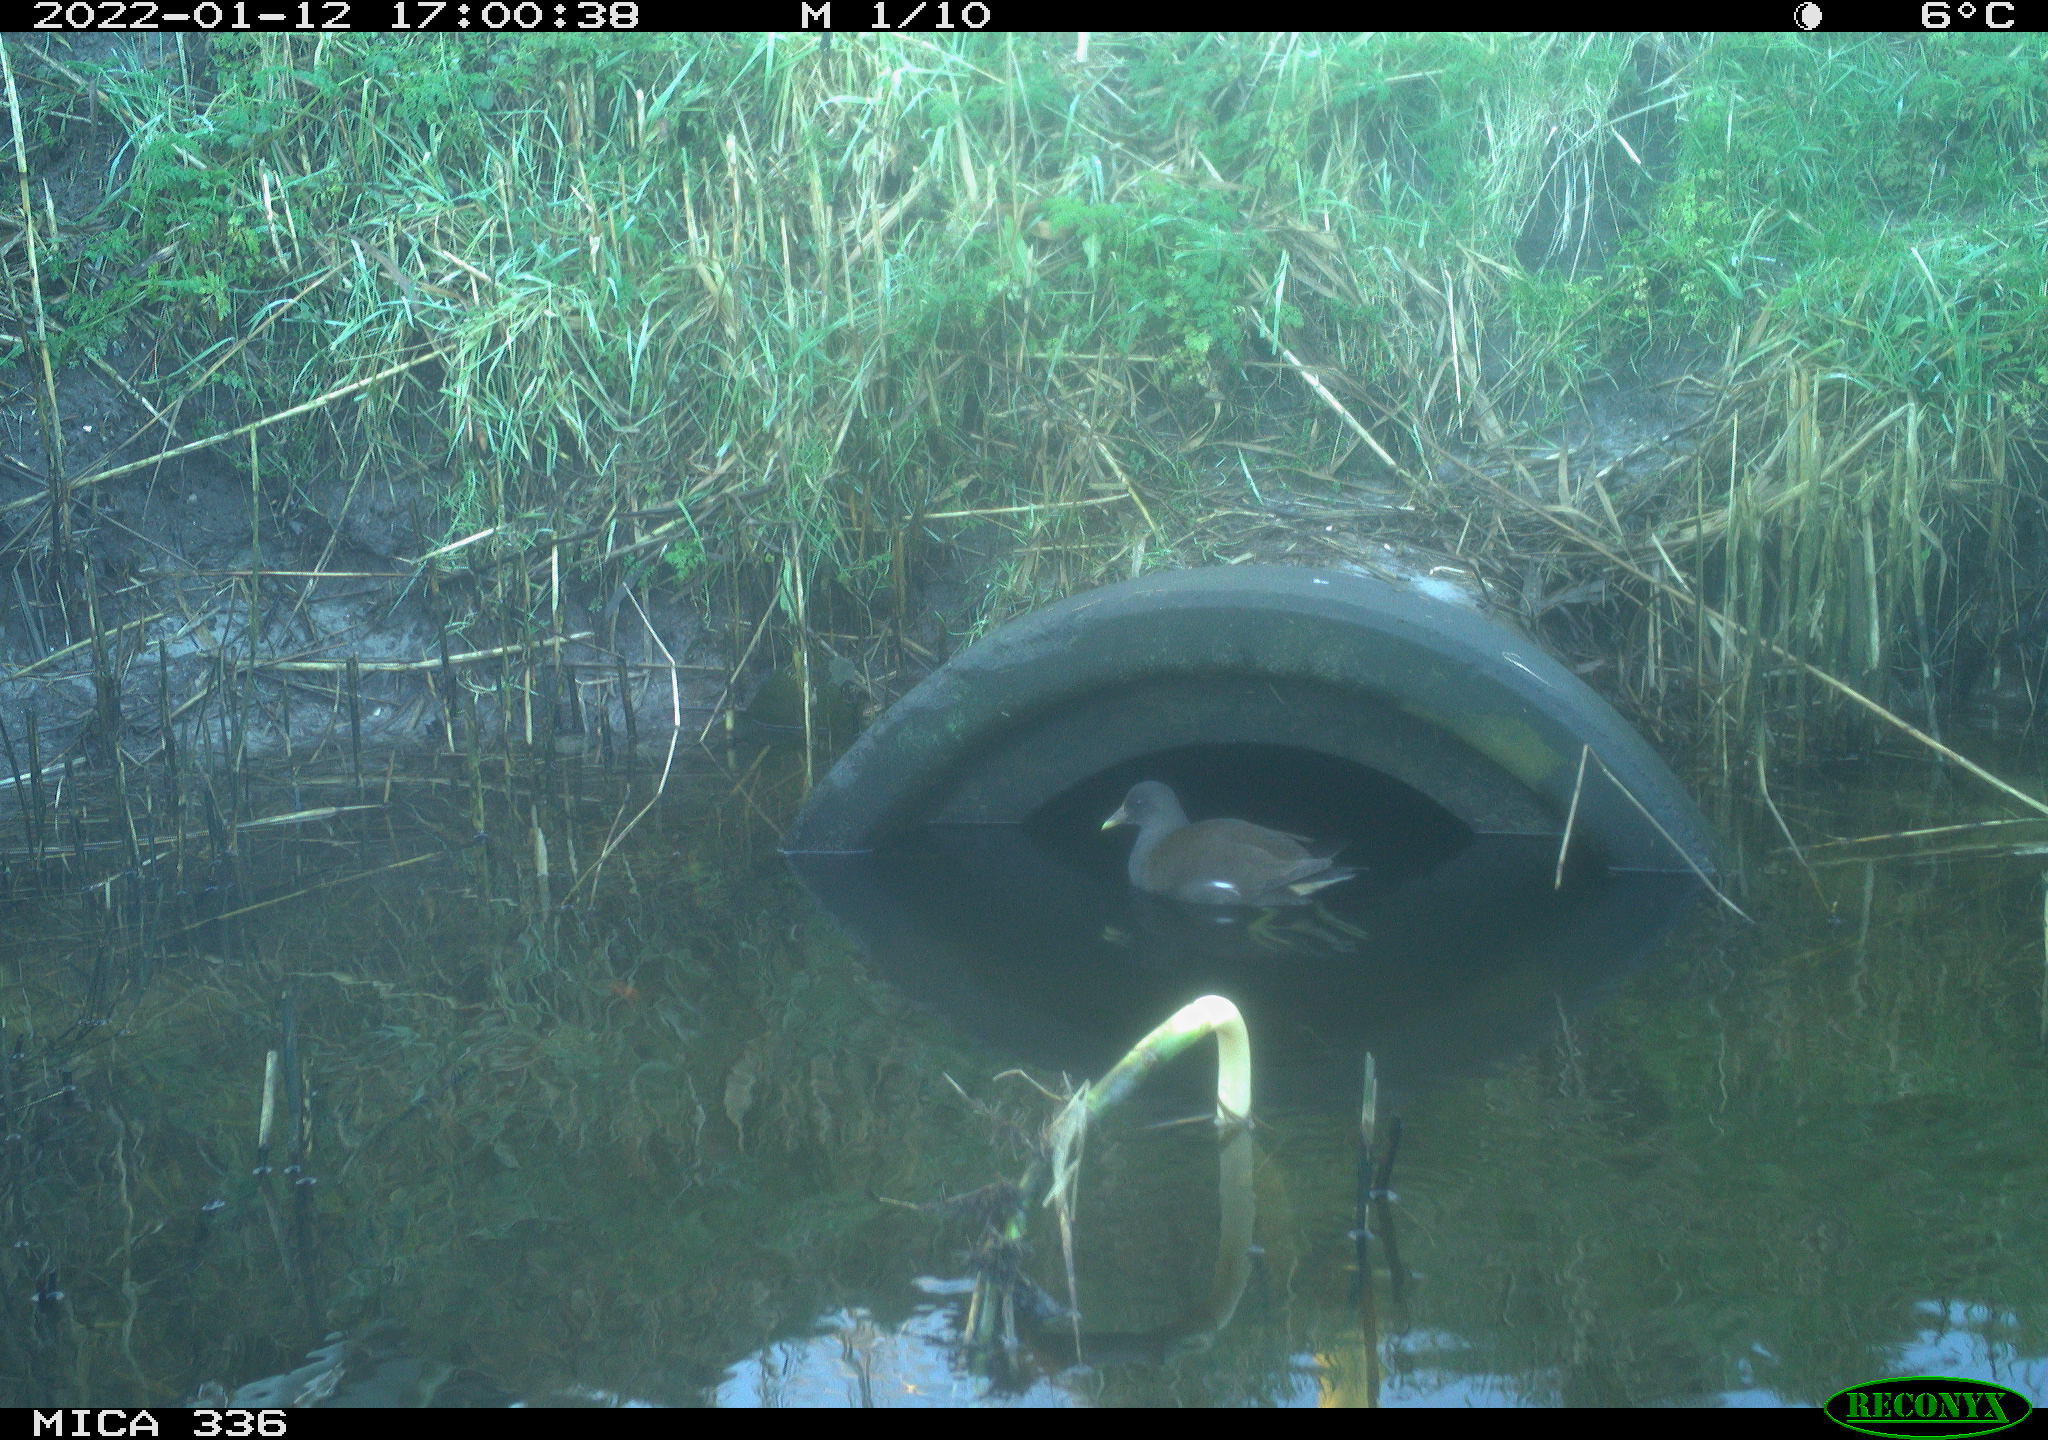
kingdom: Animalia
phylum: Chordata
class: Aves
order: Gruiformes
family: Rallidae
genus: Gallinula
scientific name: Gallinula chloropus
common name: Common moorhen
